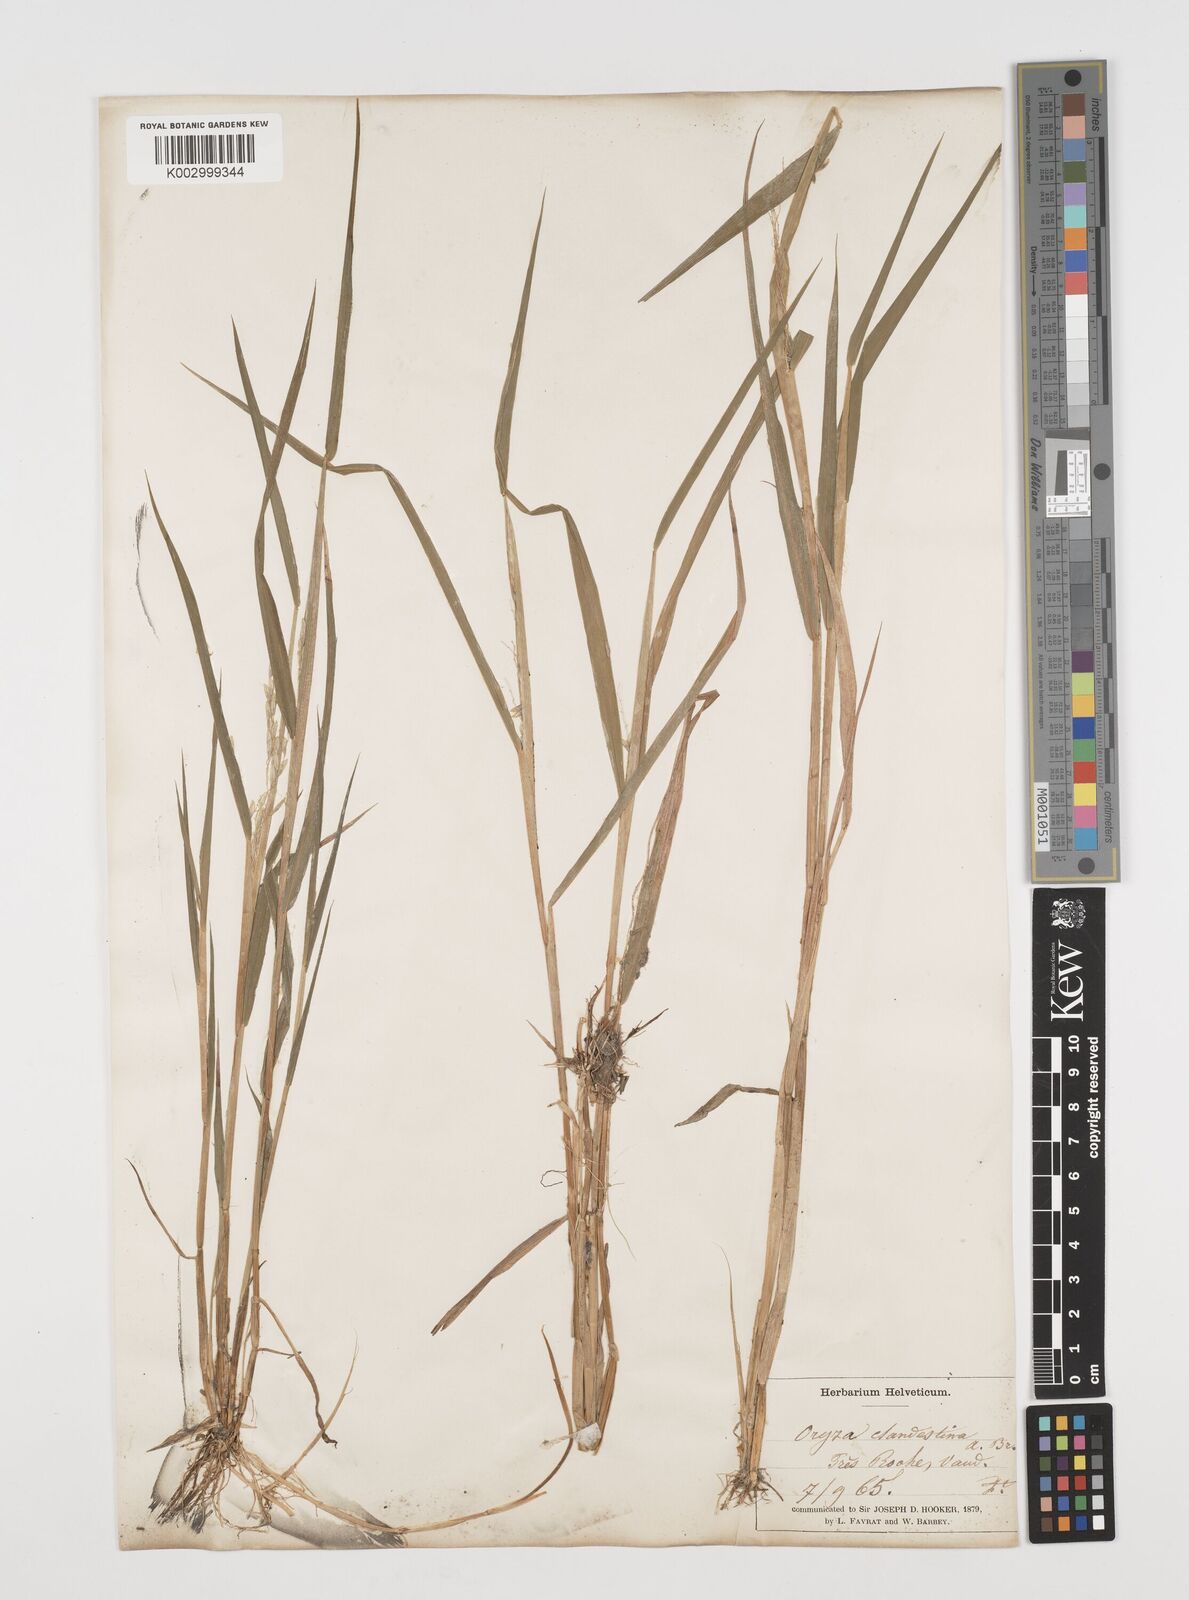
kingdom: Plantae
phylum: Tracheophyta
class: Liliopsida
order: Poales
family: Poaceae
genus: Leersia
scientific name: Leersia oryzoides
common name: Cut-grass
